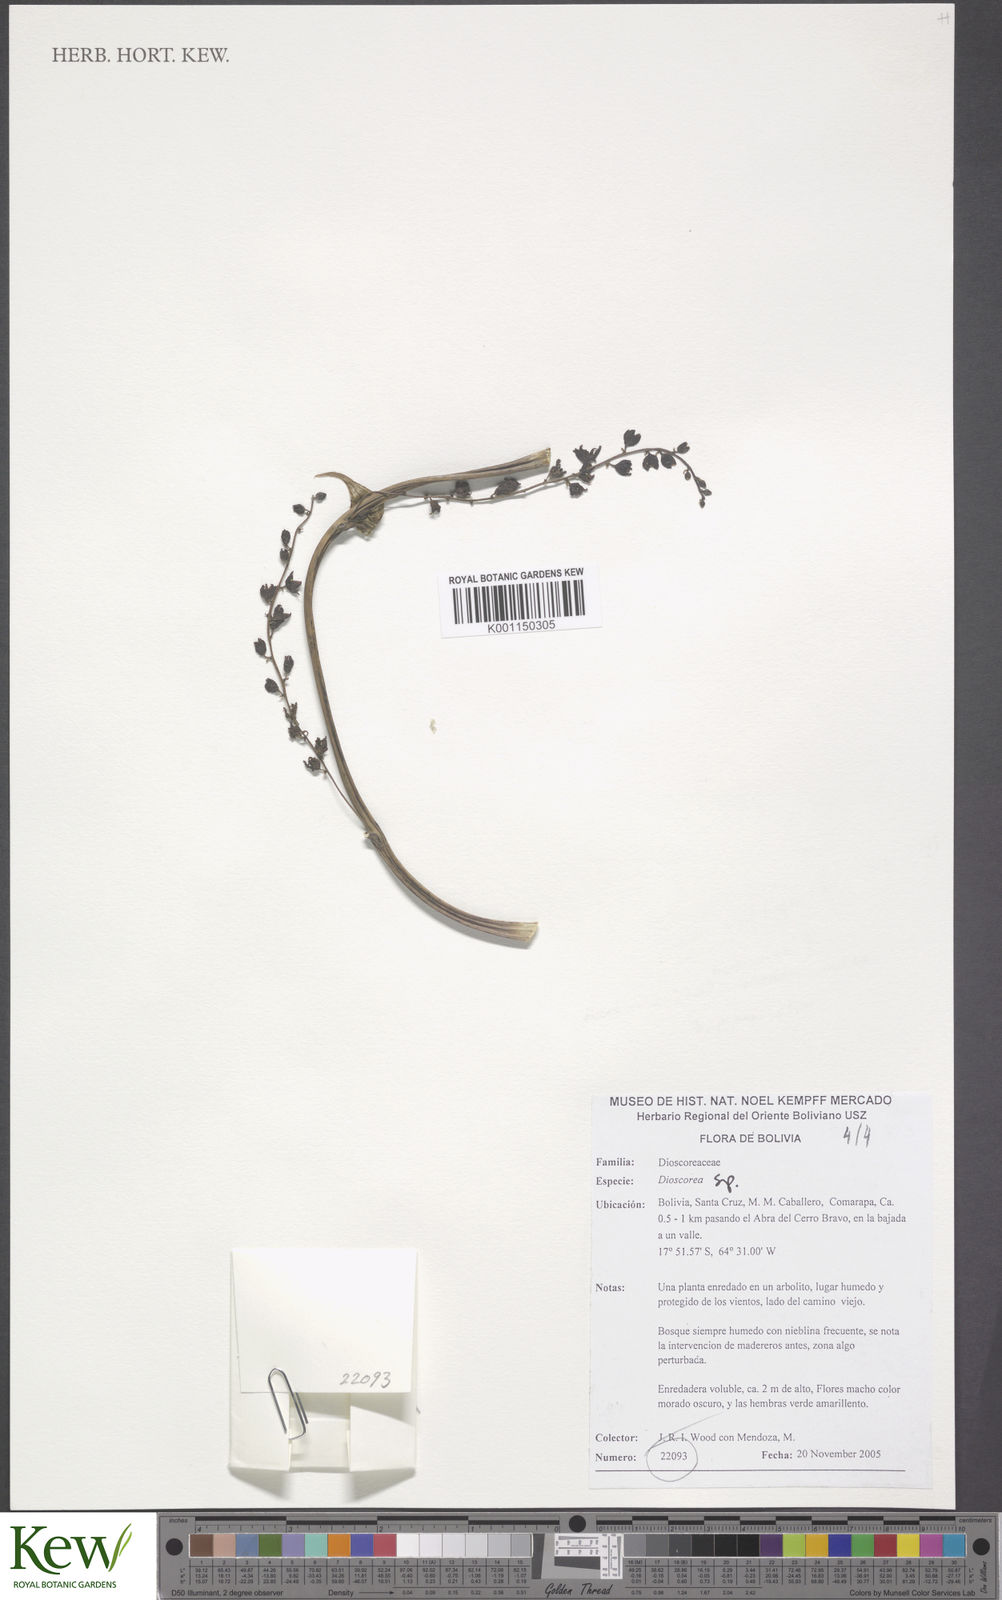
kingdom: Plantae
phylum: Tracheophyta
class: Liliopsida
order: Dioscoreales
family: Dioscoreaceae
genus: Dioscorea
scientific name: Dioscorea
